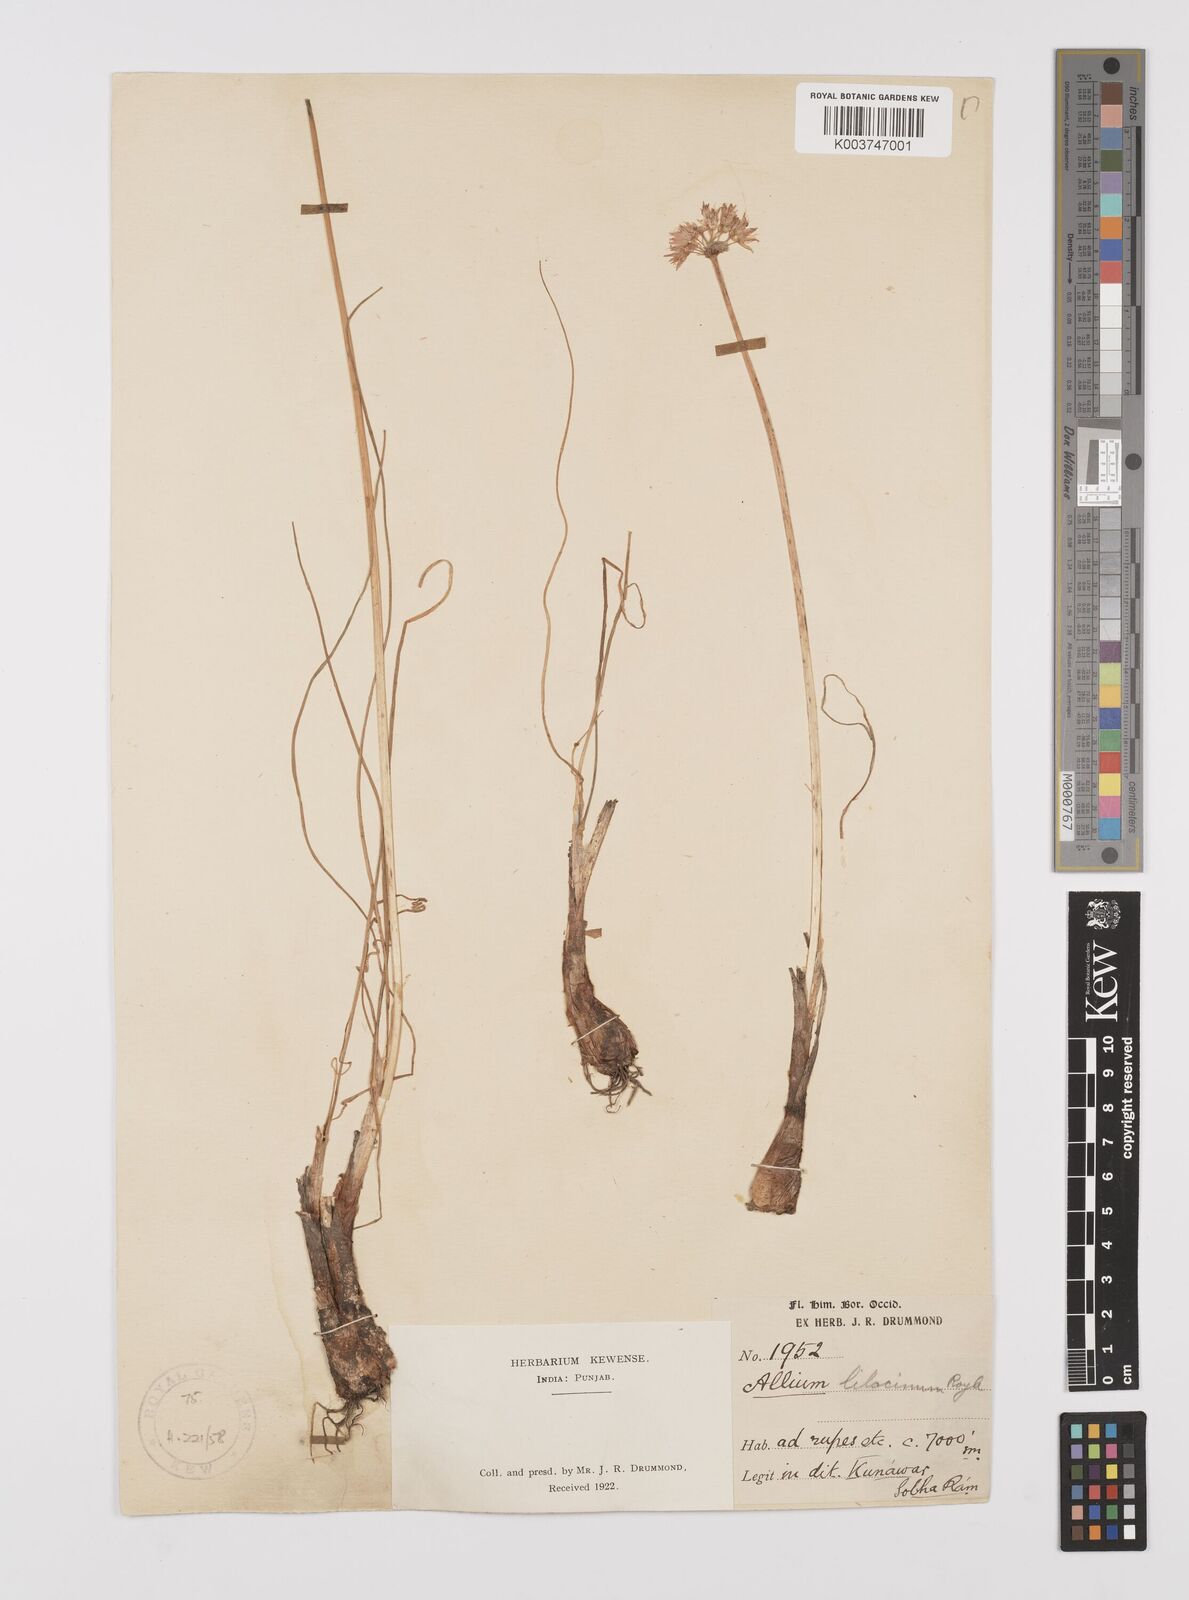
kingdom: Plantae
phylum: Tracheophyta
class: Liliopsida
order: Asparagales
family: Amaryllidaceae
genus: Allium
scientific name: Allium roylei
